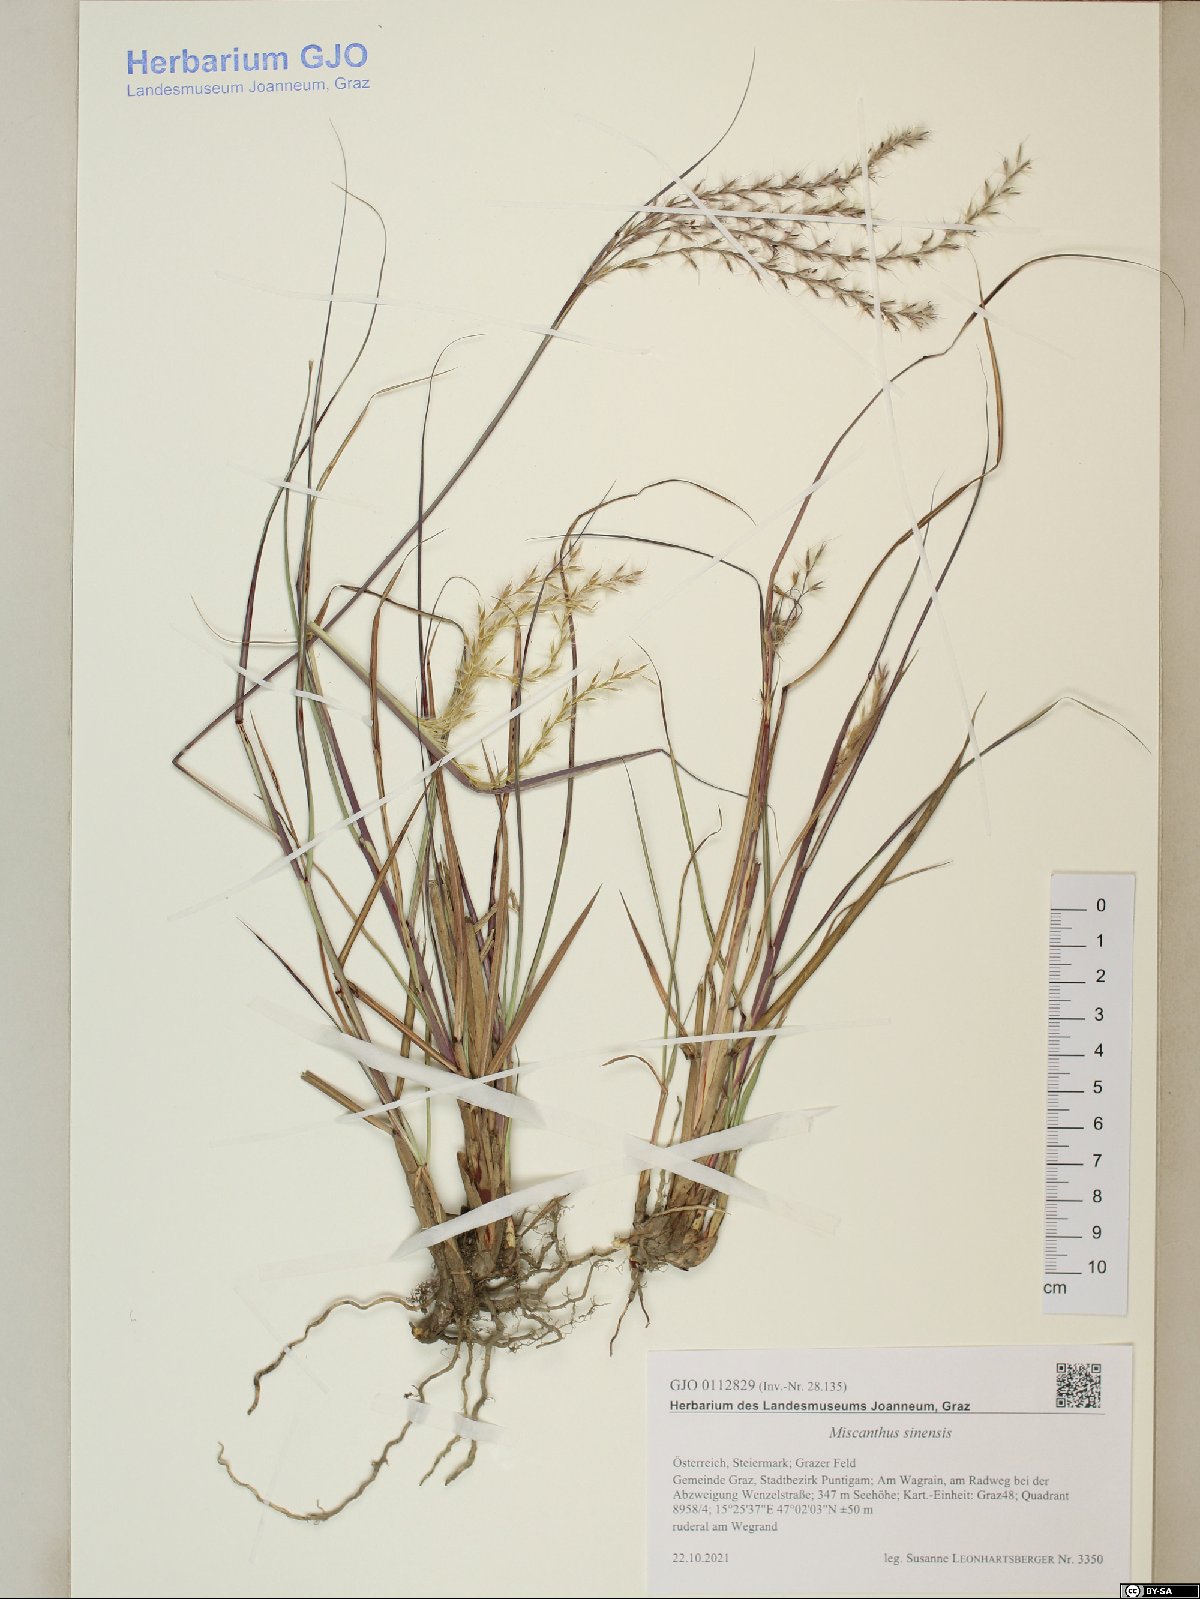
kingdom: Plantae
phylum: Tracheophyta
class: Liliopsida
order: Poales
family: Poaceae
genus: Miscanthus
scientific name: Miscanthus sinensis
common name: Chinese silvergrass
